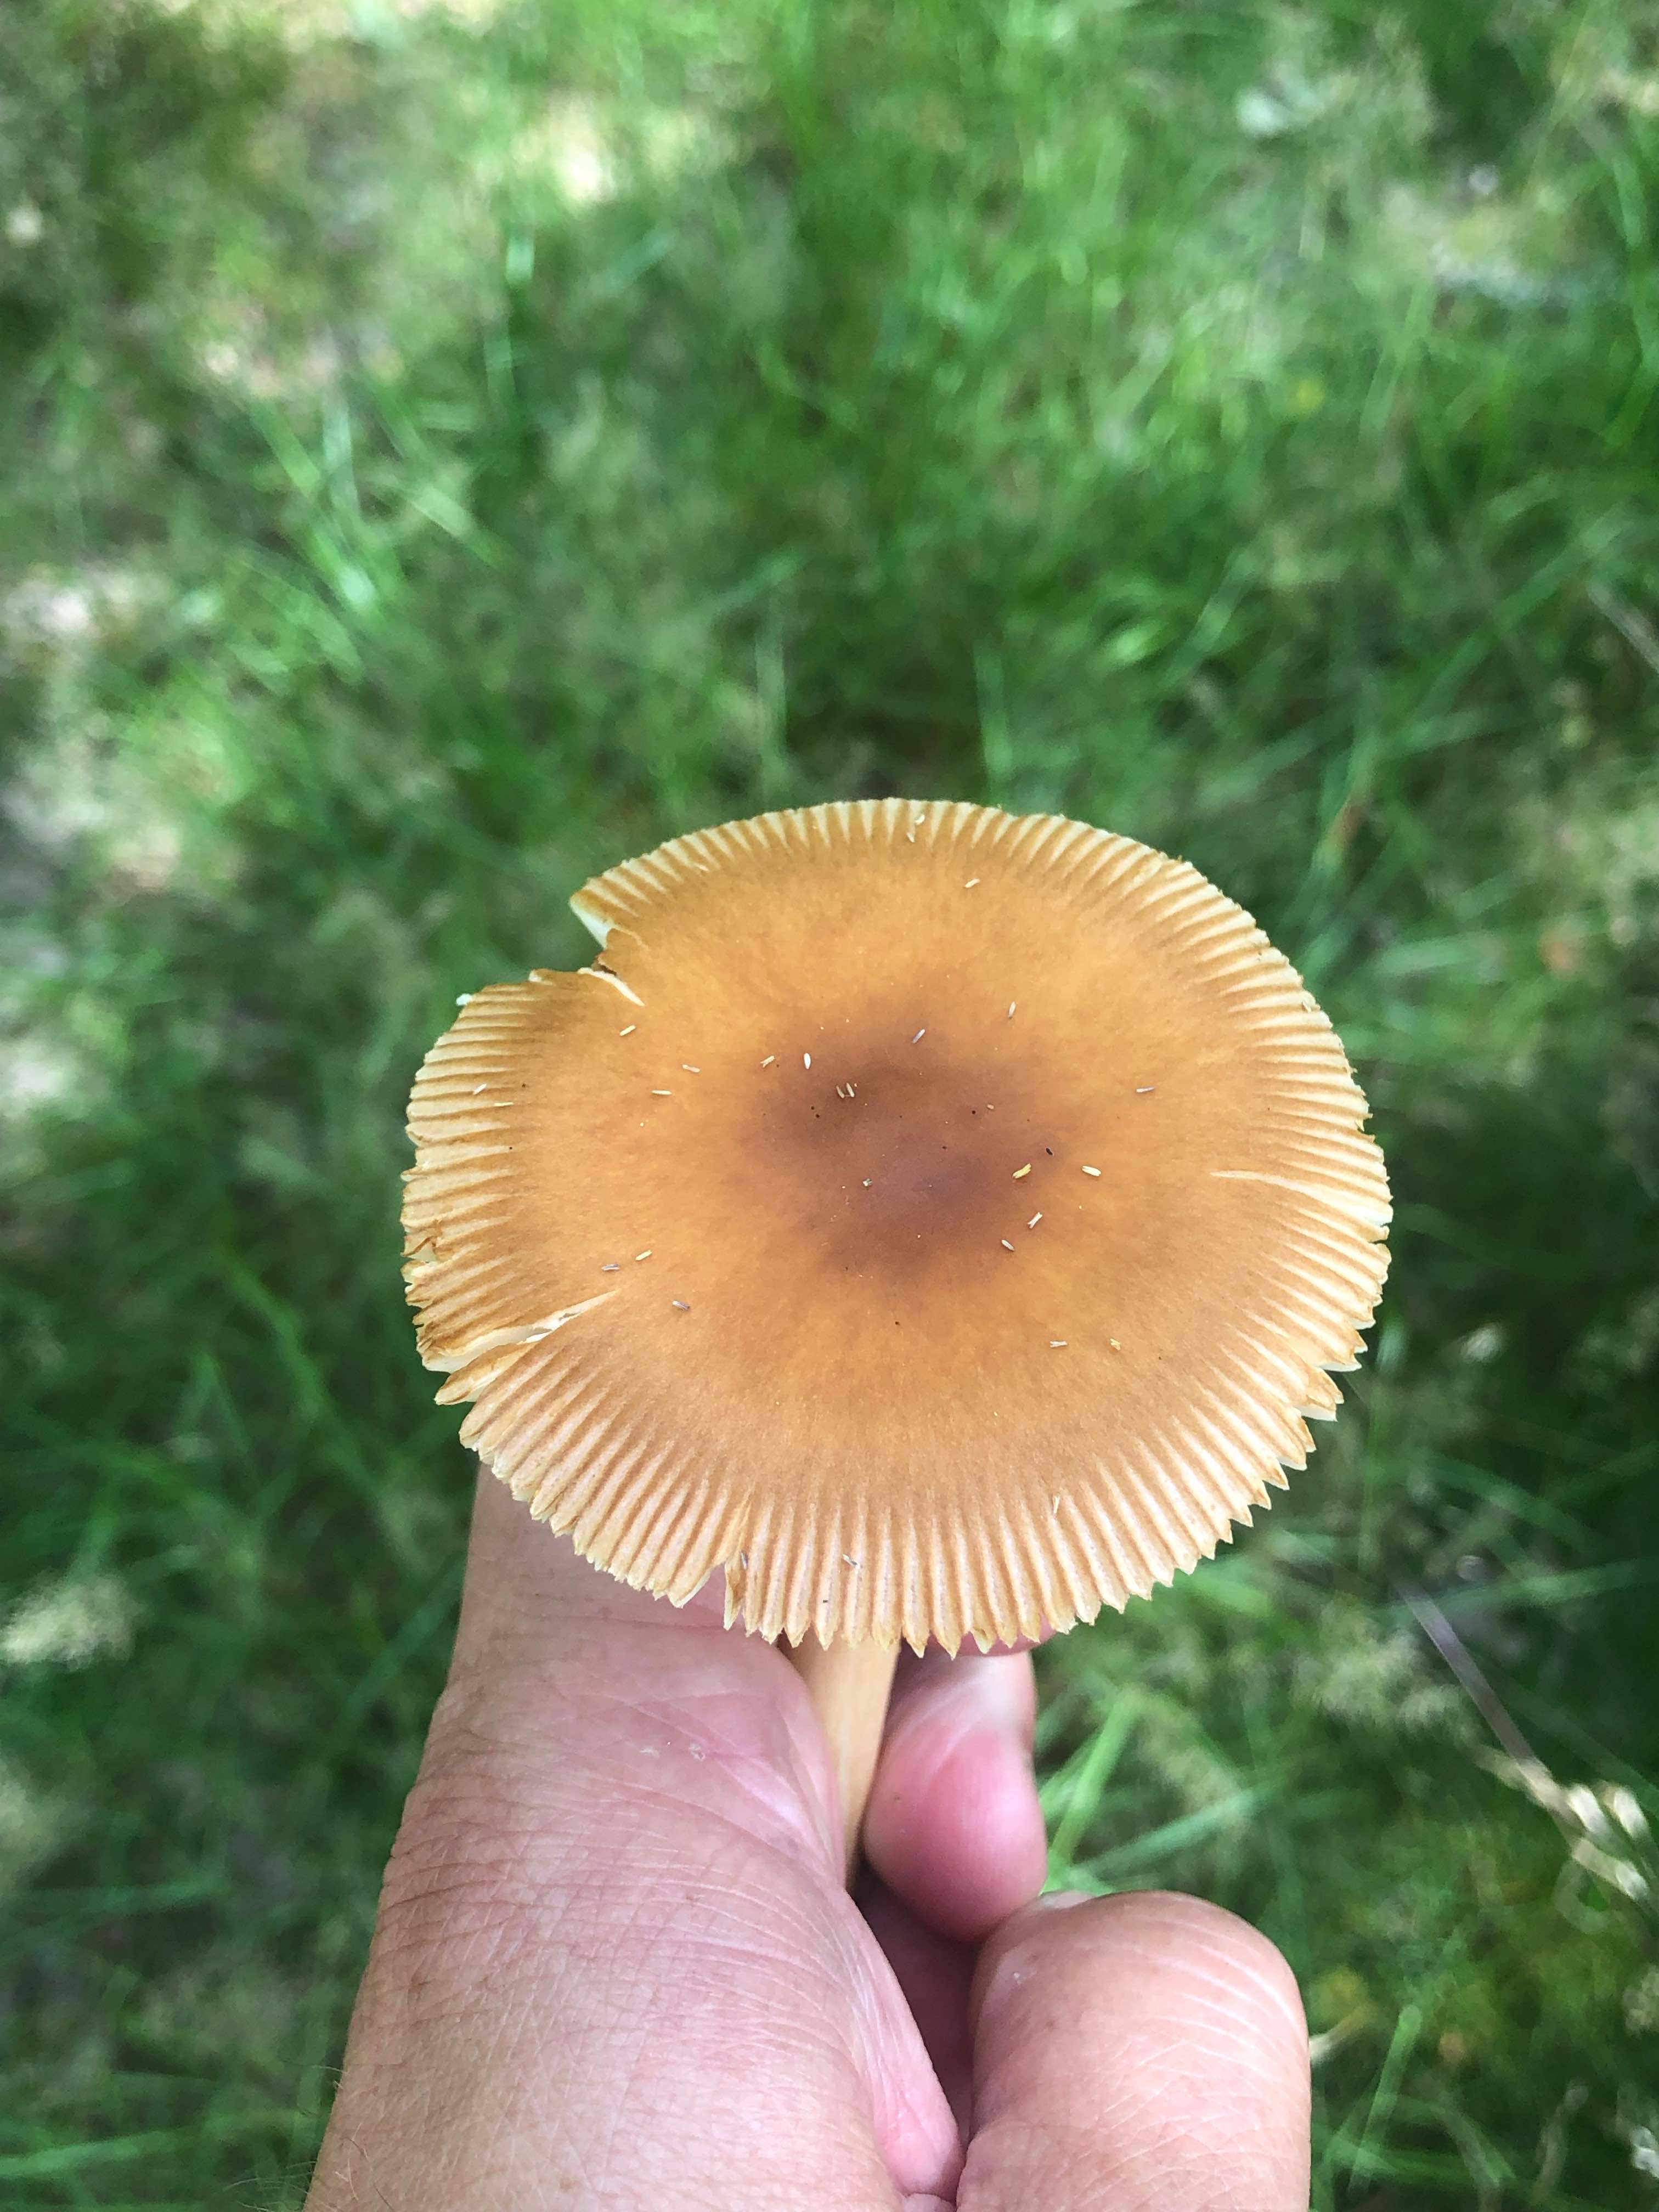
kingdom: Fungi
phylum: Basidiomycota
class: Agaricomycetes
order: Agaricales
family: Amanitaceae
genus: Amanita
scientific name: Amanita fulva
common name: brun kam-fluesvamp
